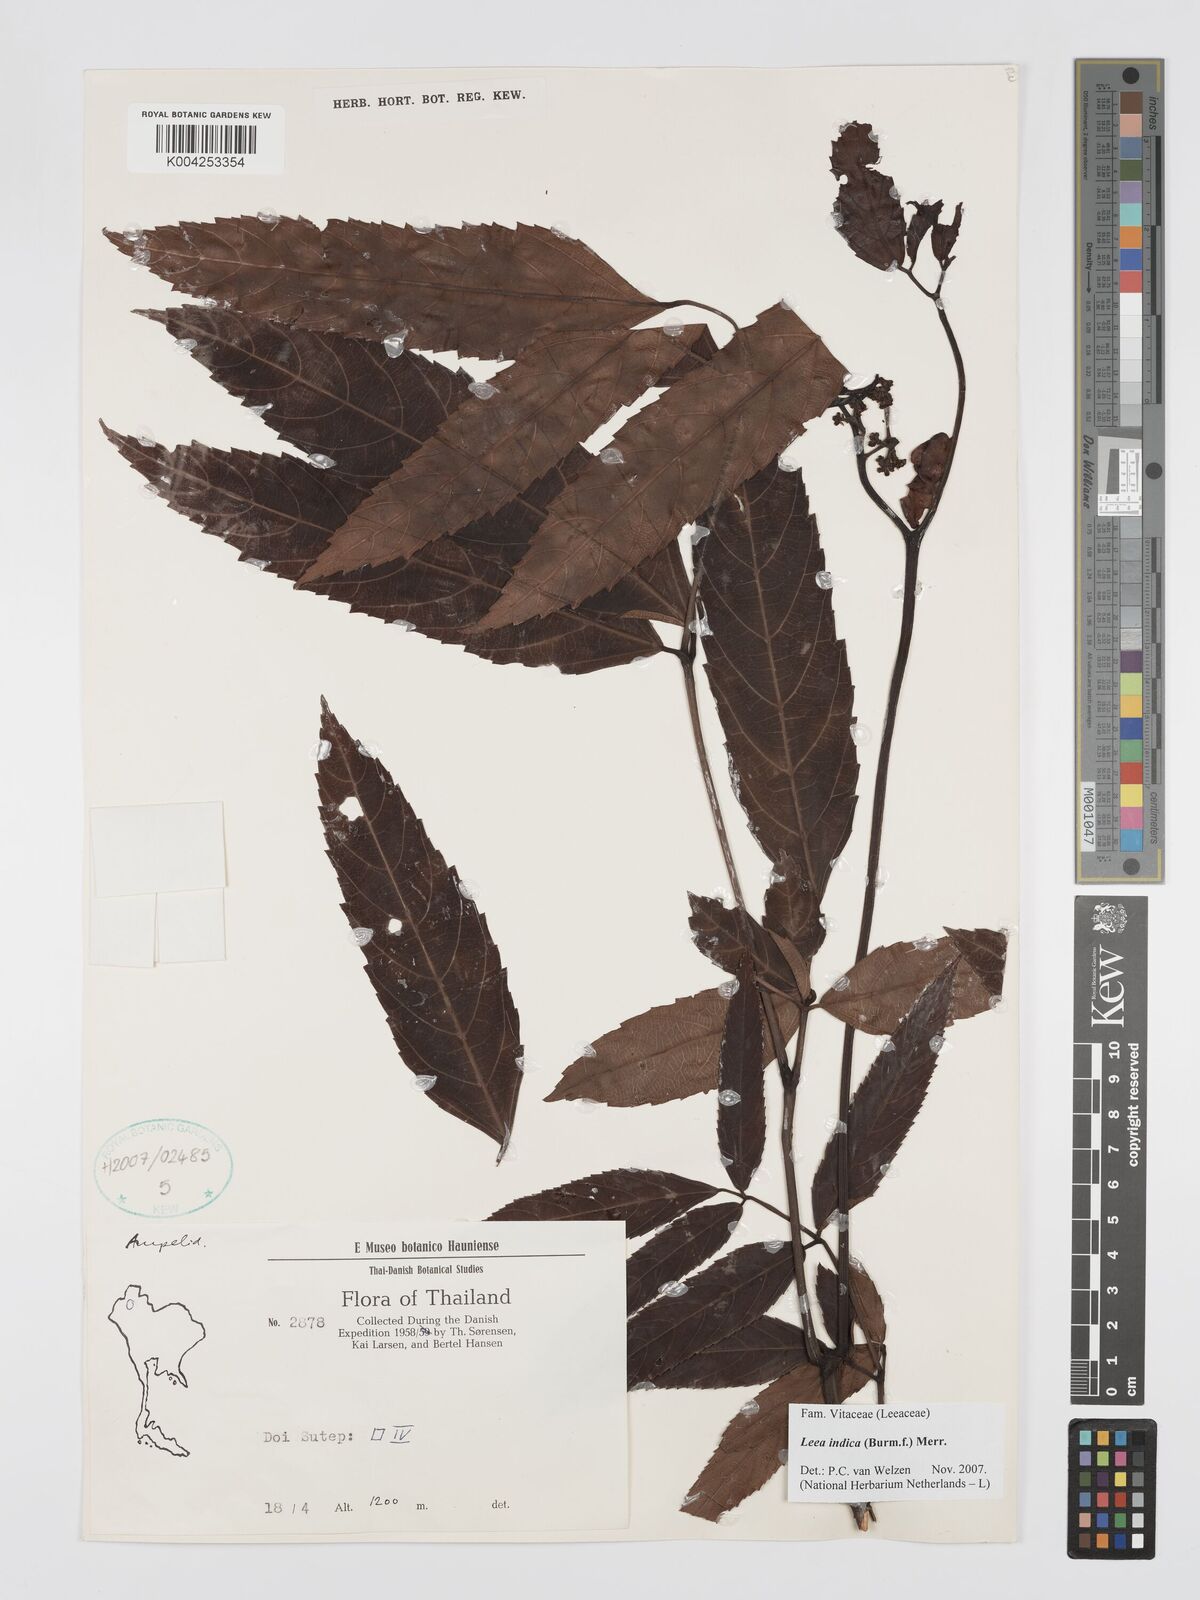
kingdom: Plantae
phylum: Tracheophyta
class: Magnoliopsida
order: Vitales
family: Vitaceae
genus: Leea
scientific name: Leea indica
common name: Bandicoot-berry
